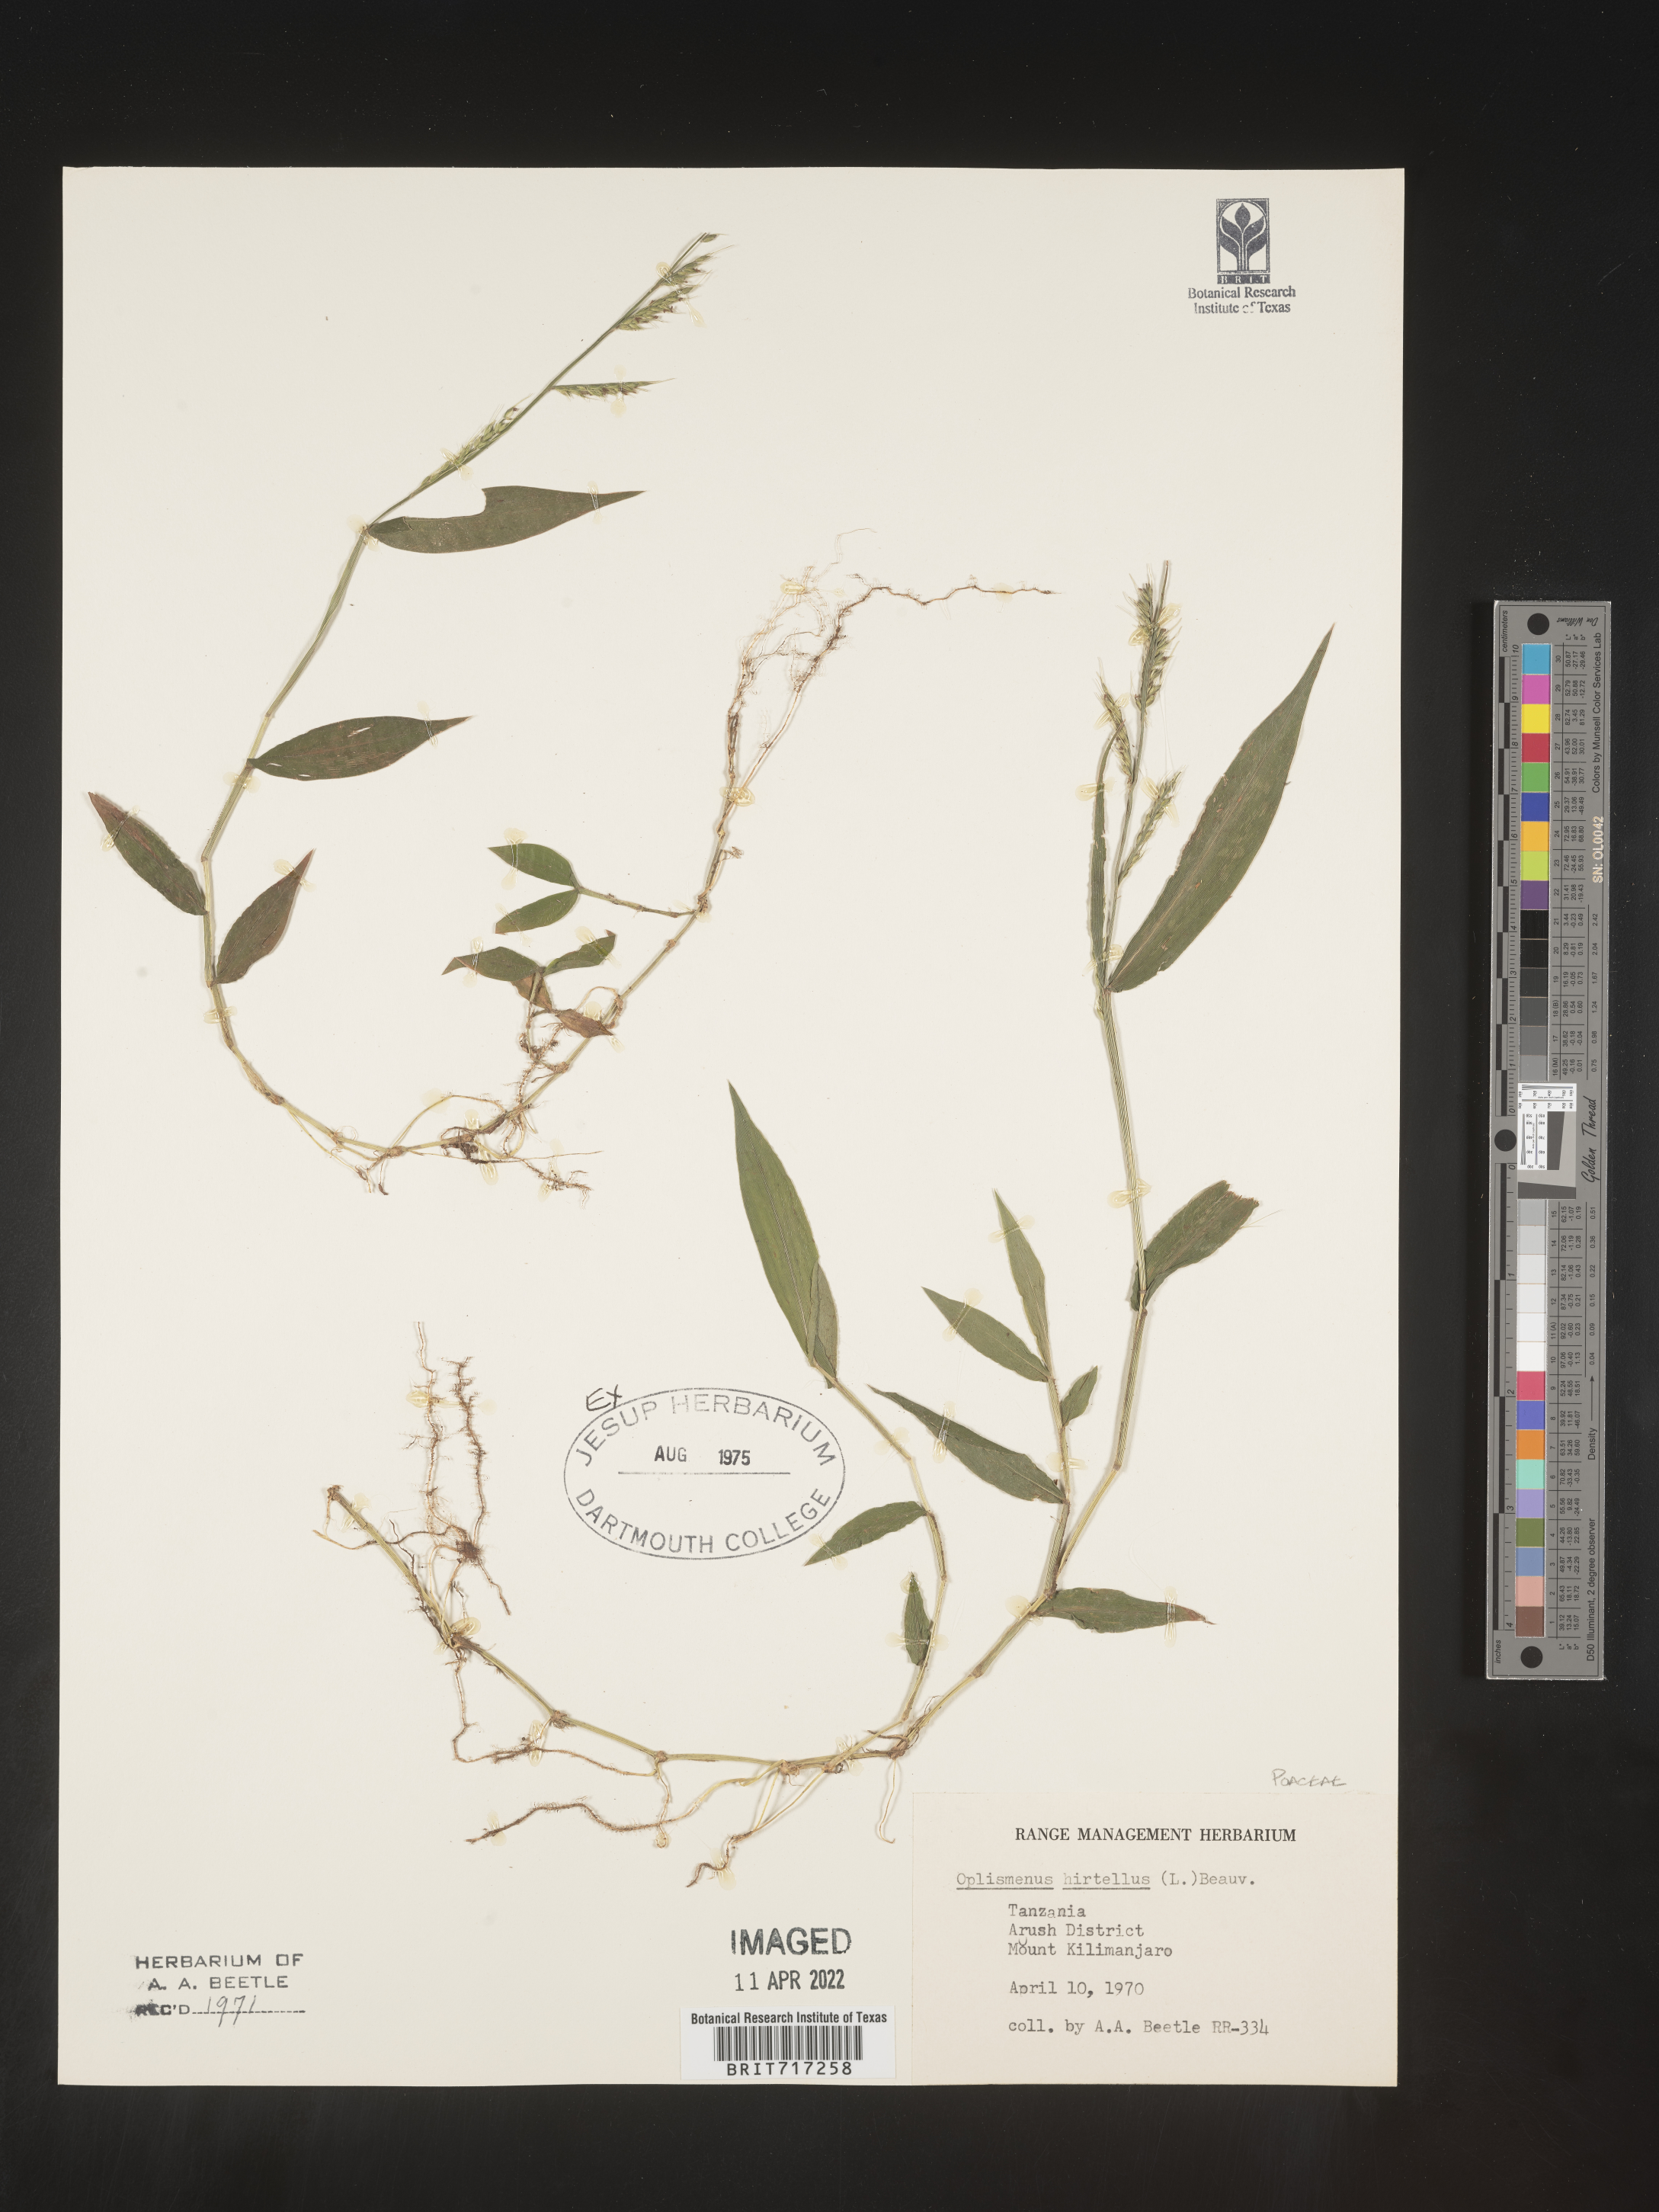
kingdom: Plantae
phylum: Tracheophyta
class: Liliopsida
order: Poales
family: Poaceae
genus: Oplismenus
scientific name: Oplismenus
